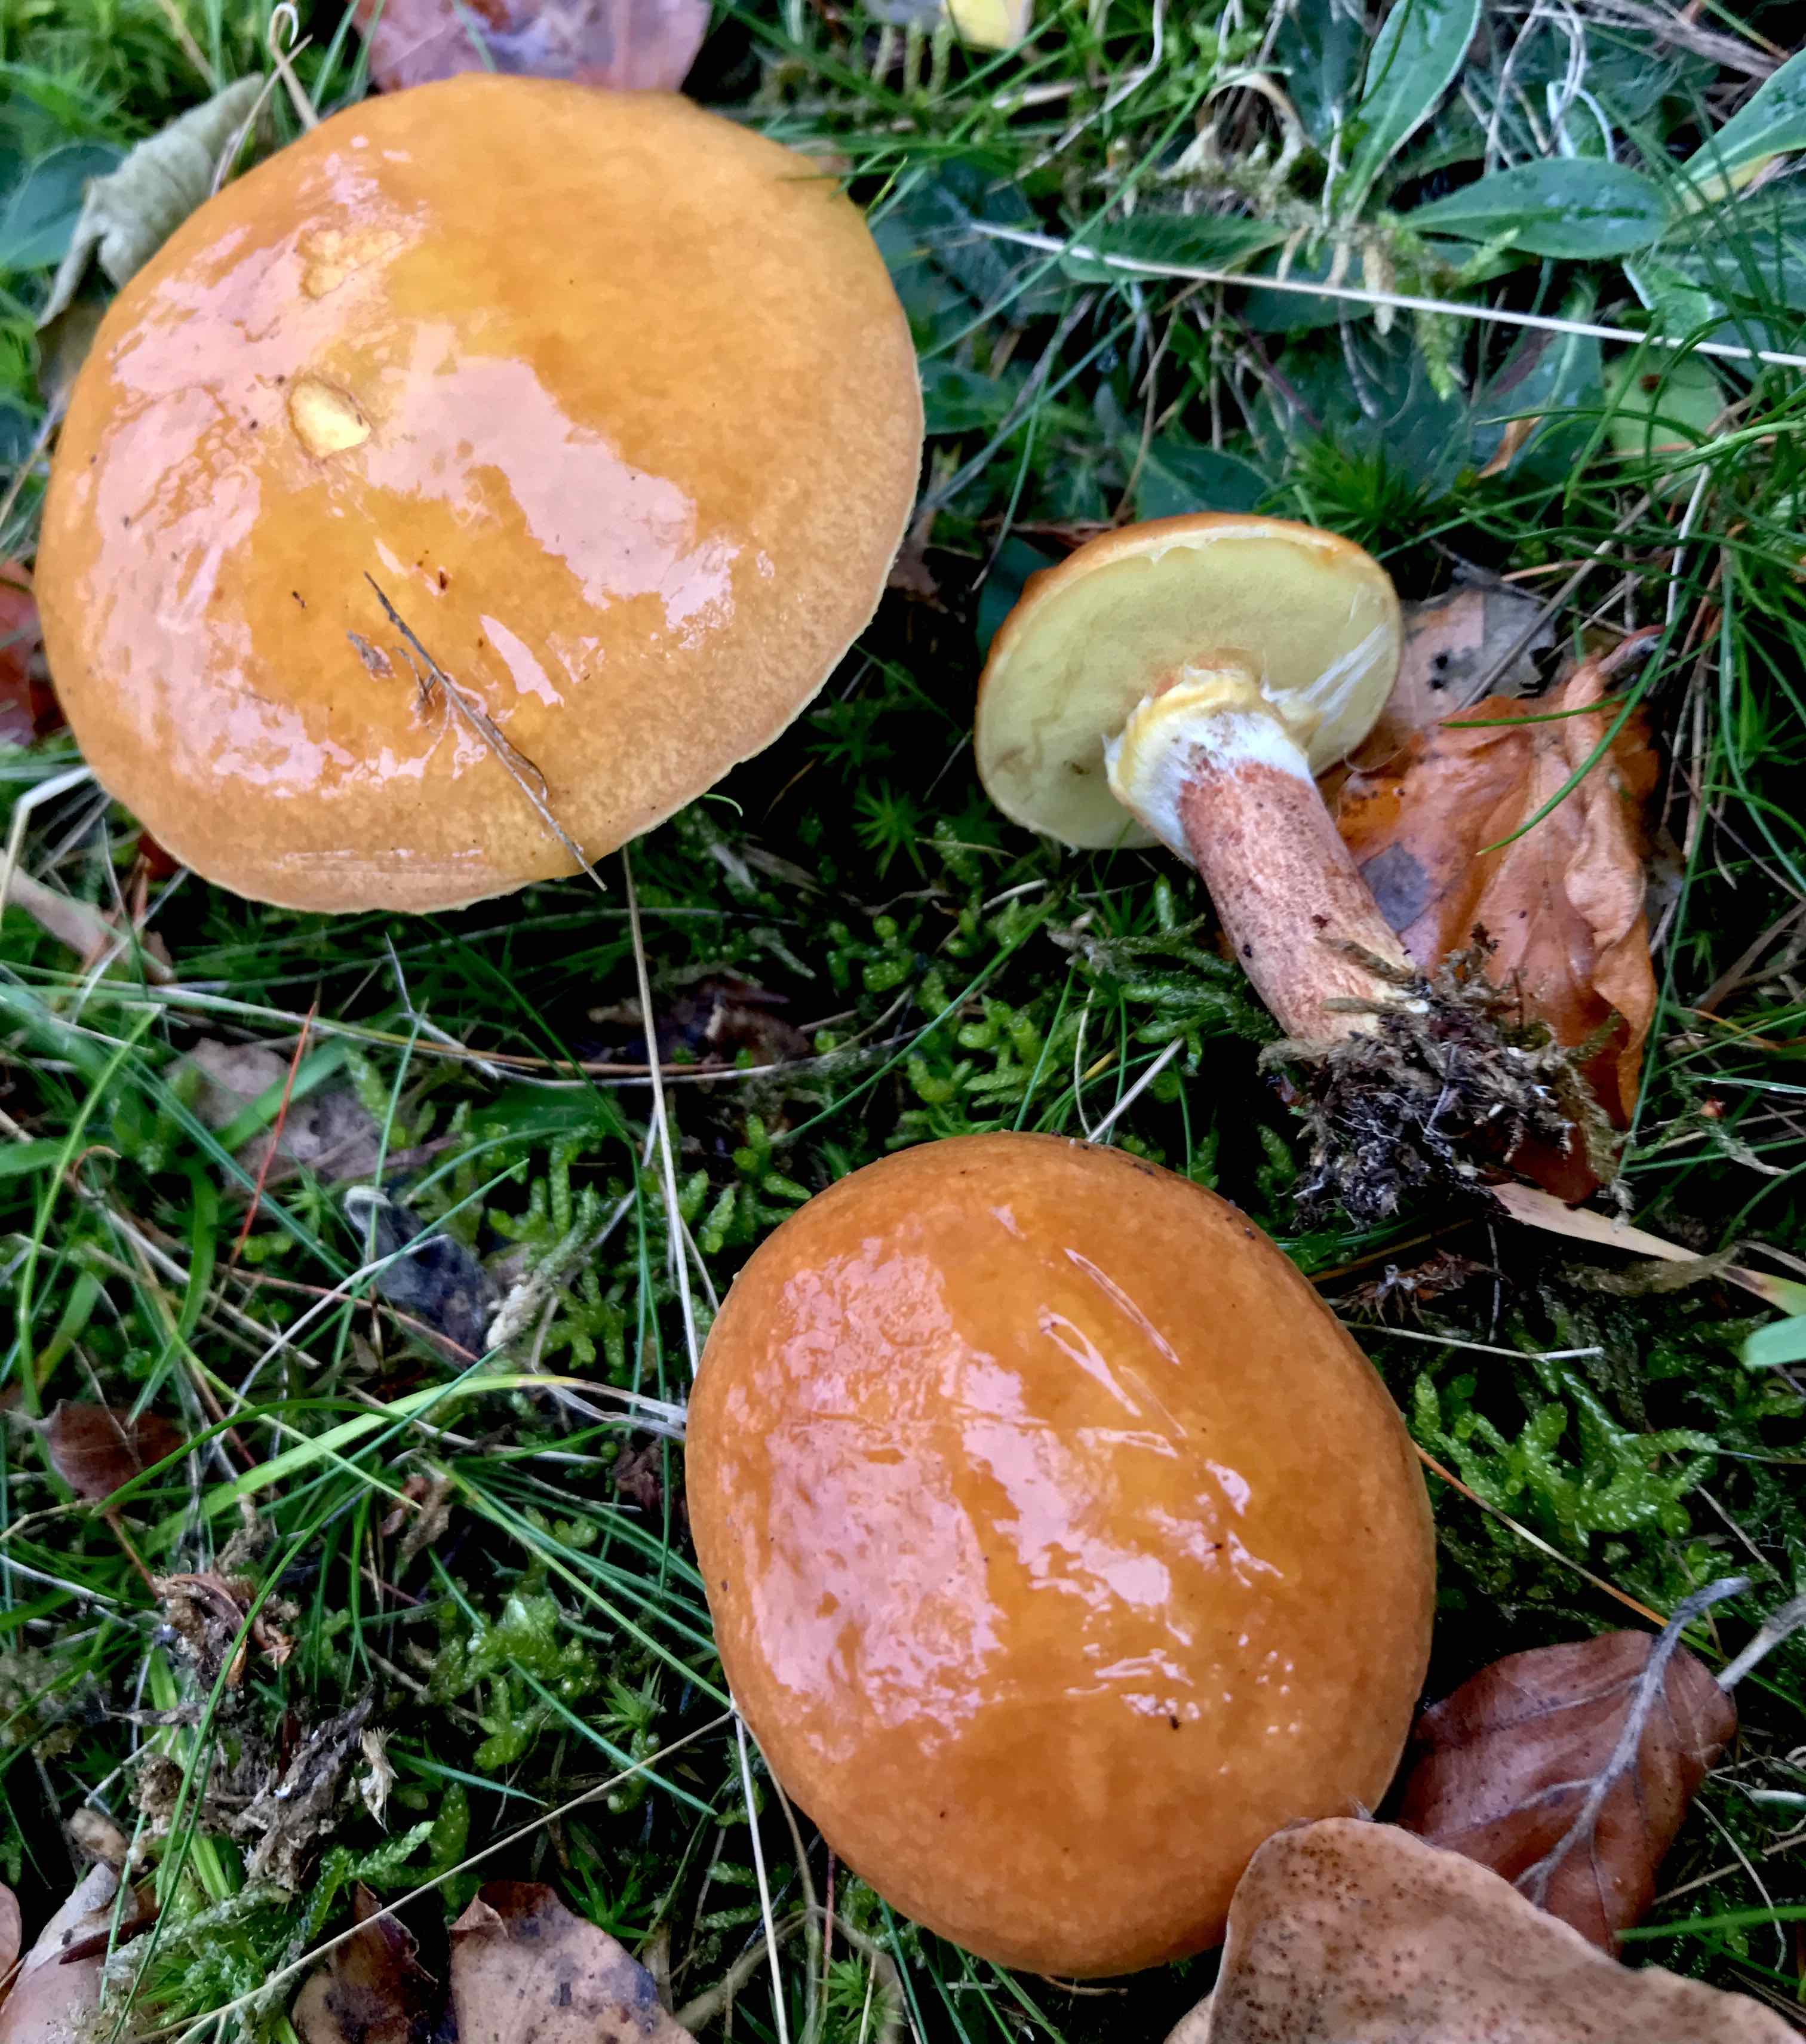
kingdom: Fungi
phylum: Basidiomycota
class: Agaricomycetes
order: Boletales
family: Suillaceae
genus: Suillus
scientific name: Suillus grevillei
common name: lærke-slimrørhat
